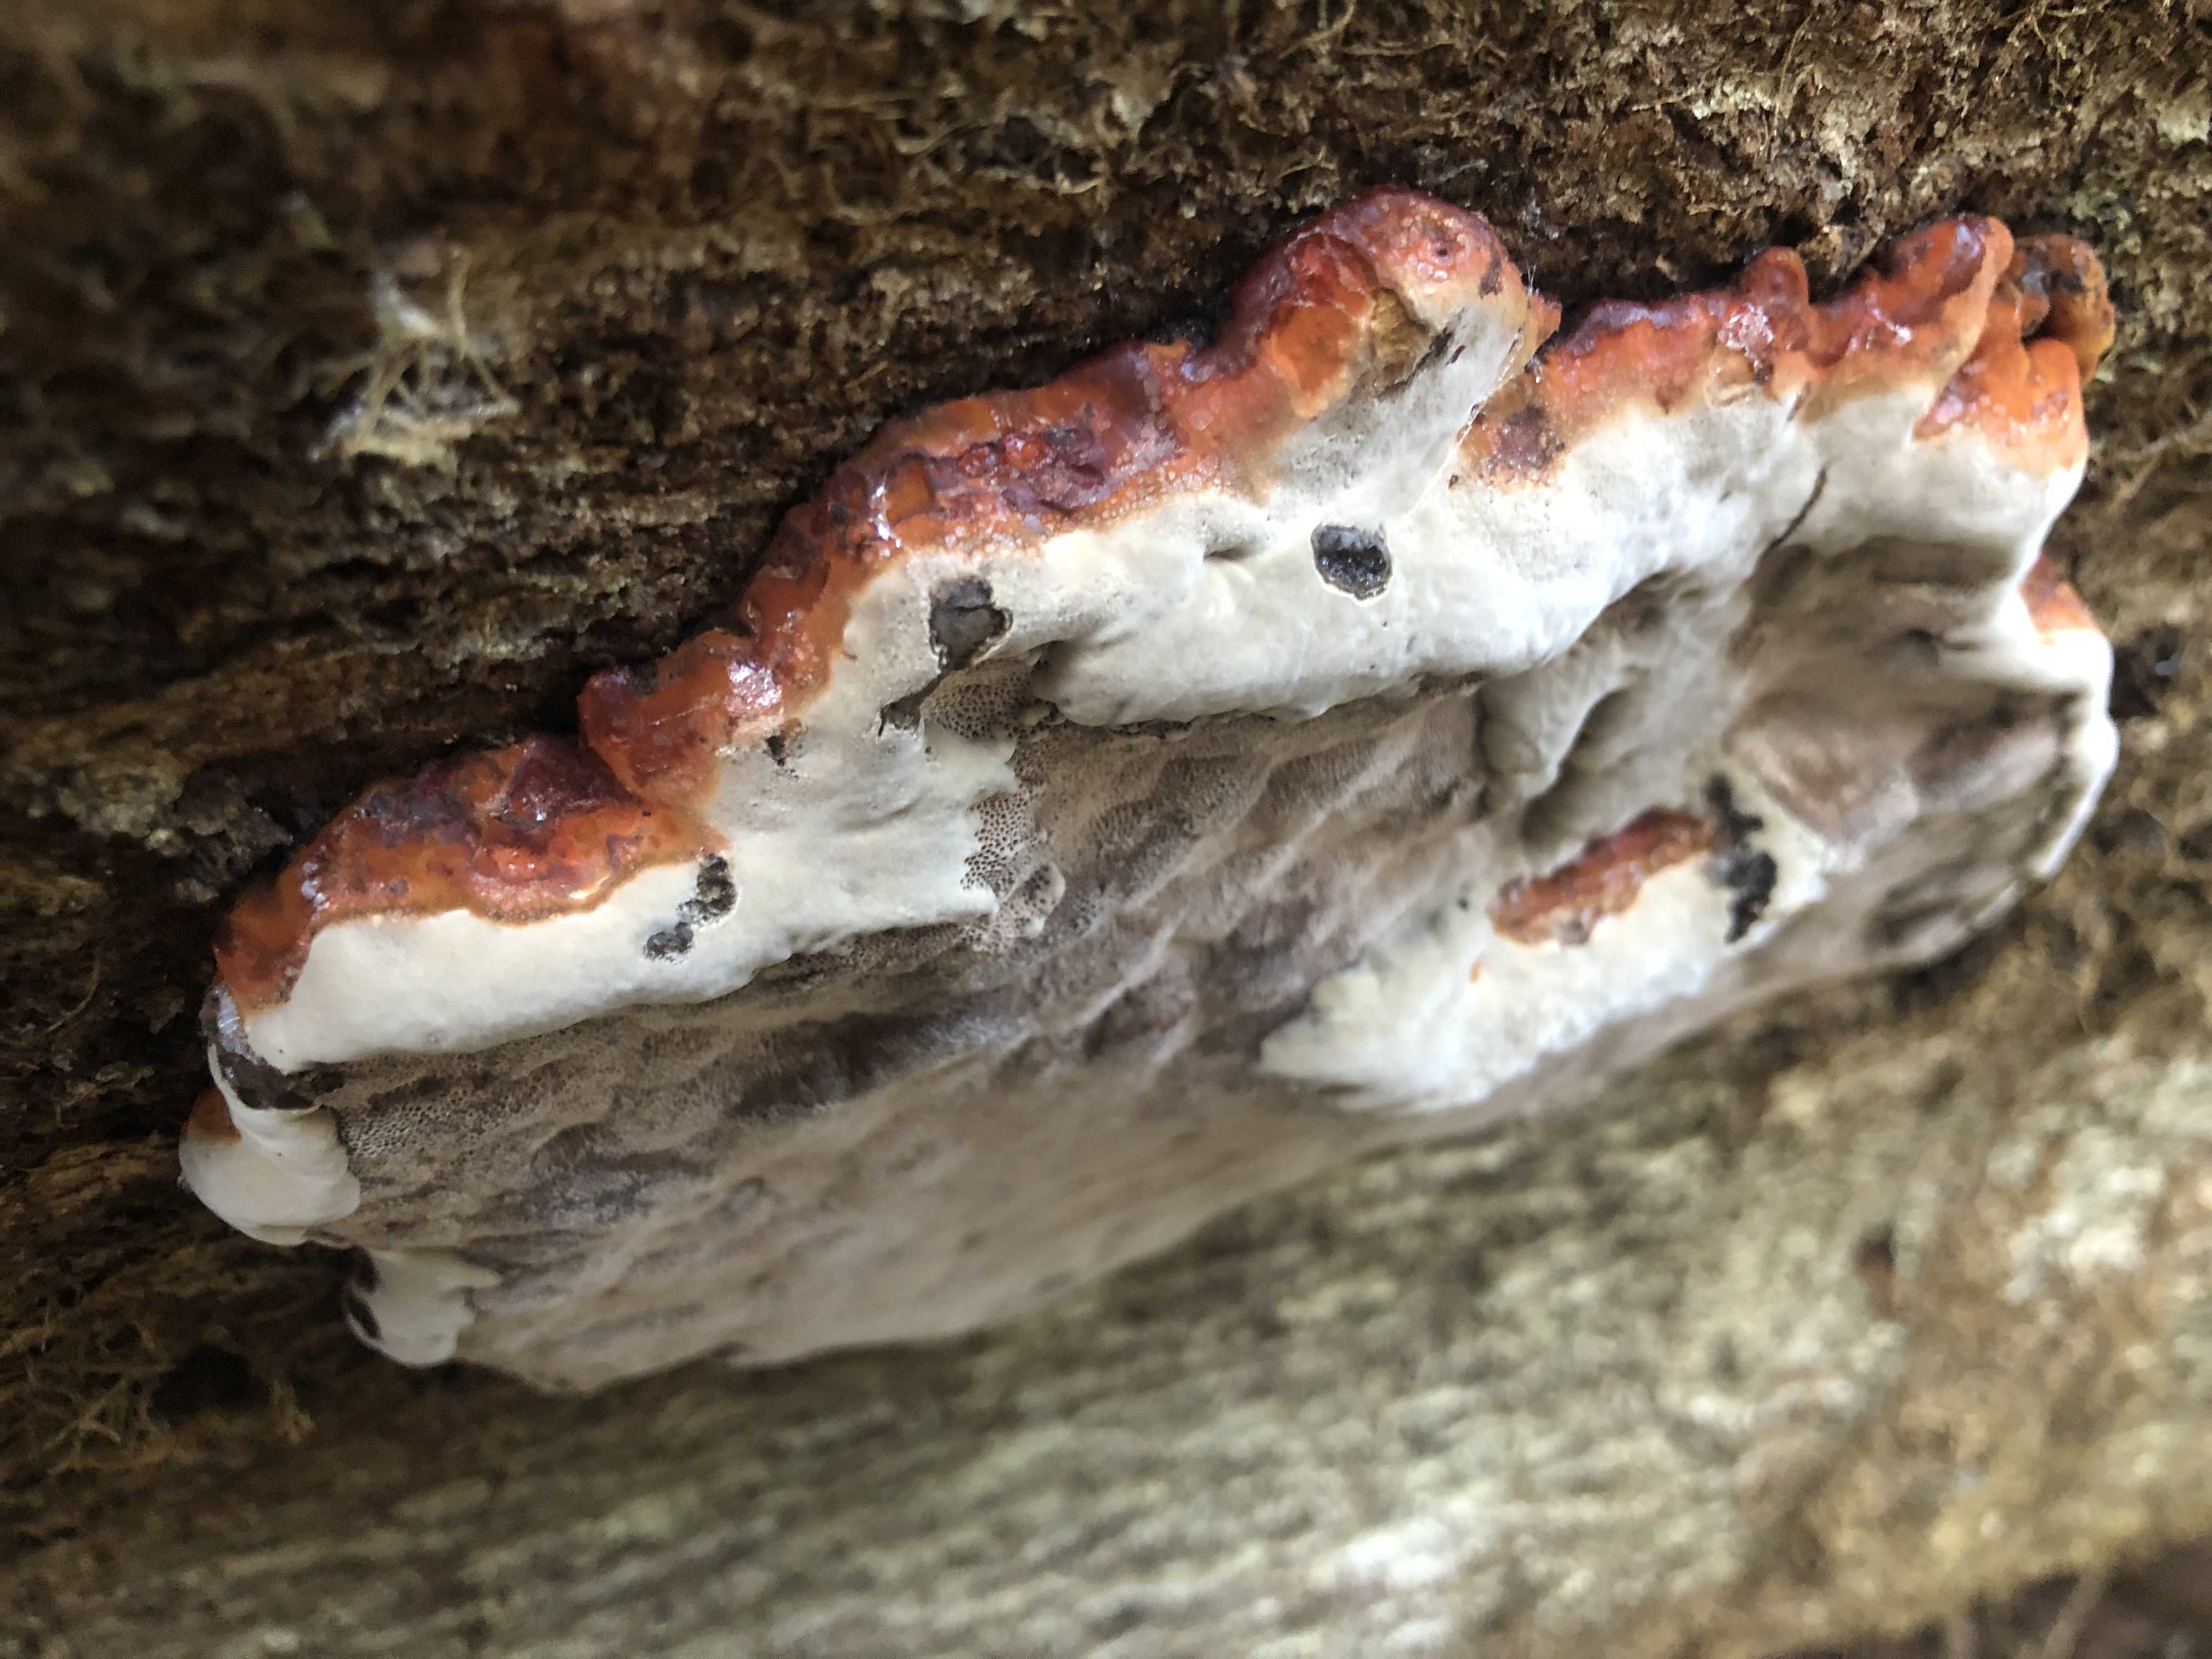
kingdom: Fungi
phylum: Basidiomycota
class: Agaricomycetes
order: Polyporales
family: Fomitopsidaceae
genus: Fomitopsis
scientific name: Fomitopsis pinicola
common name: randbæltet hovporesvamp
